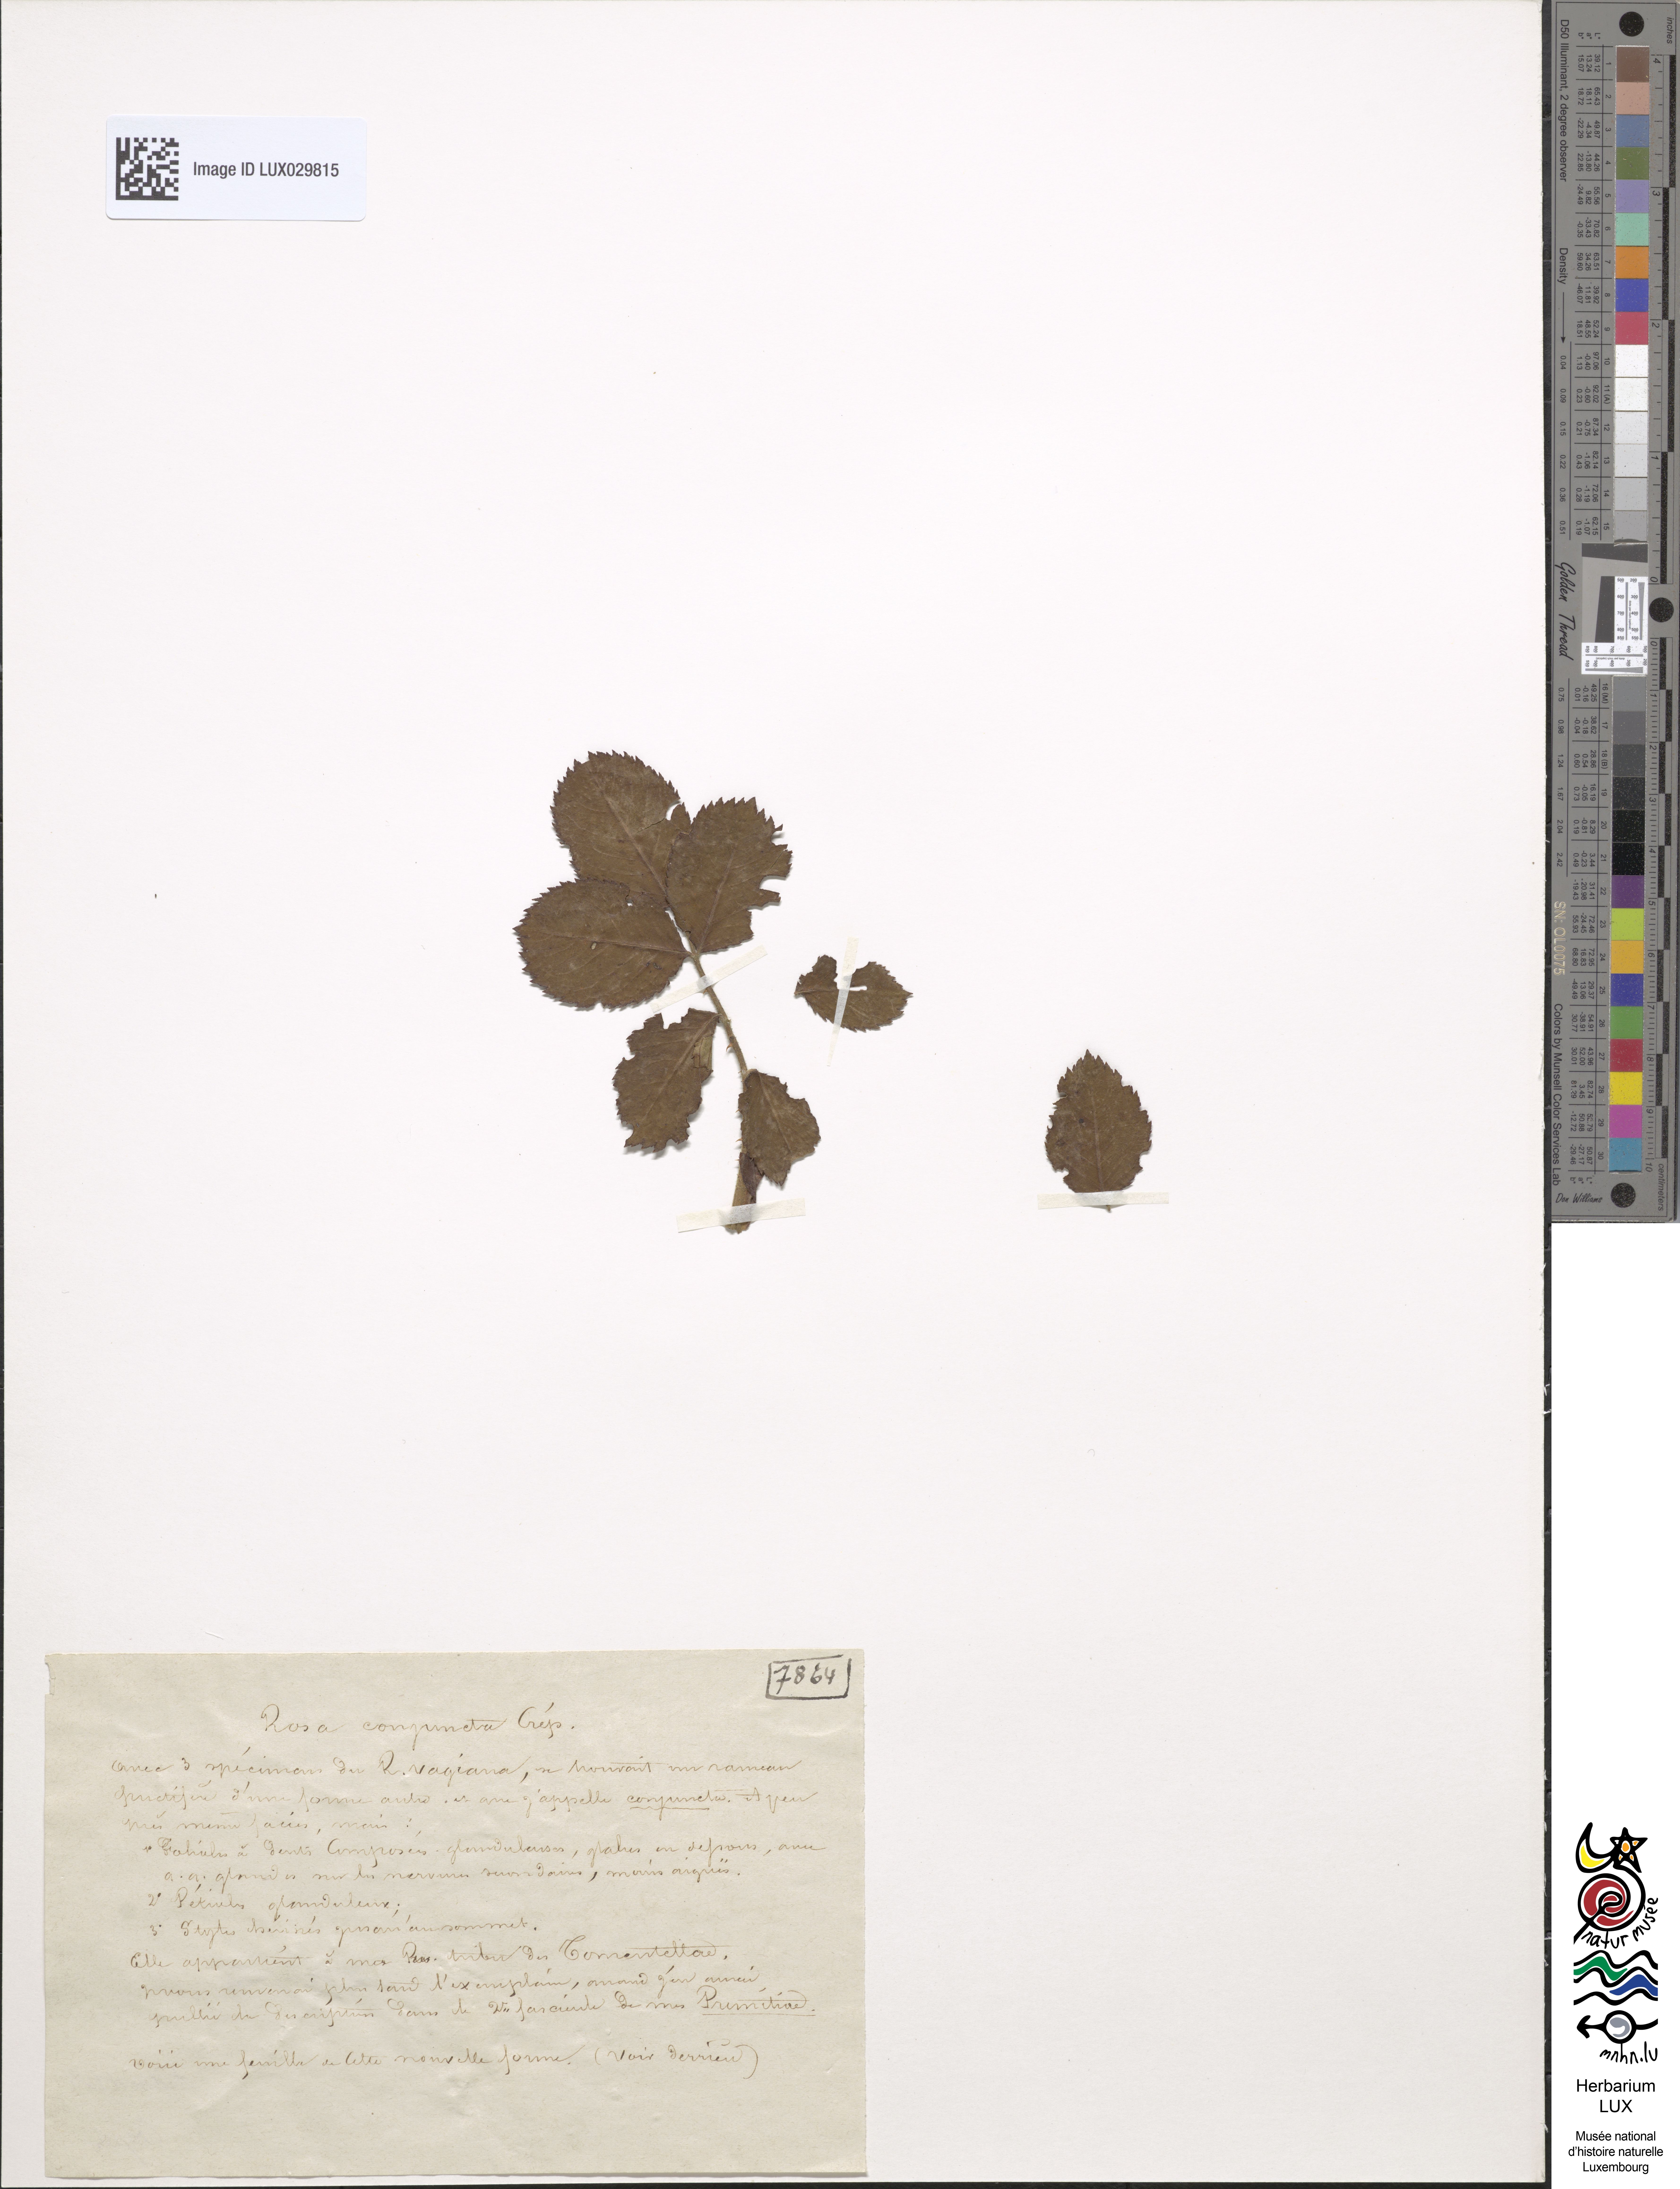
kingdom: Plantae
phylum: Tracheophyta
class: Magnoliopsida
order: Rosales
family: Rosaceae
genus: Rosa
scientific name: Rosa conjuncta
